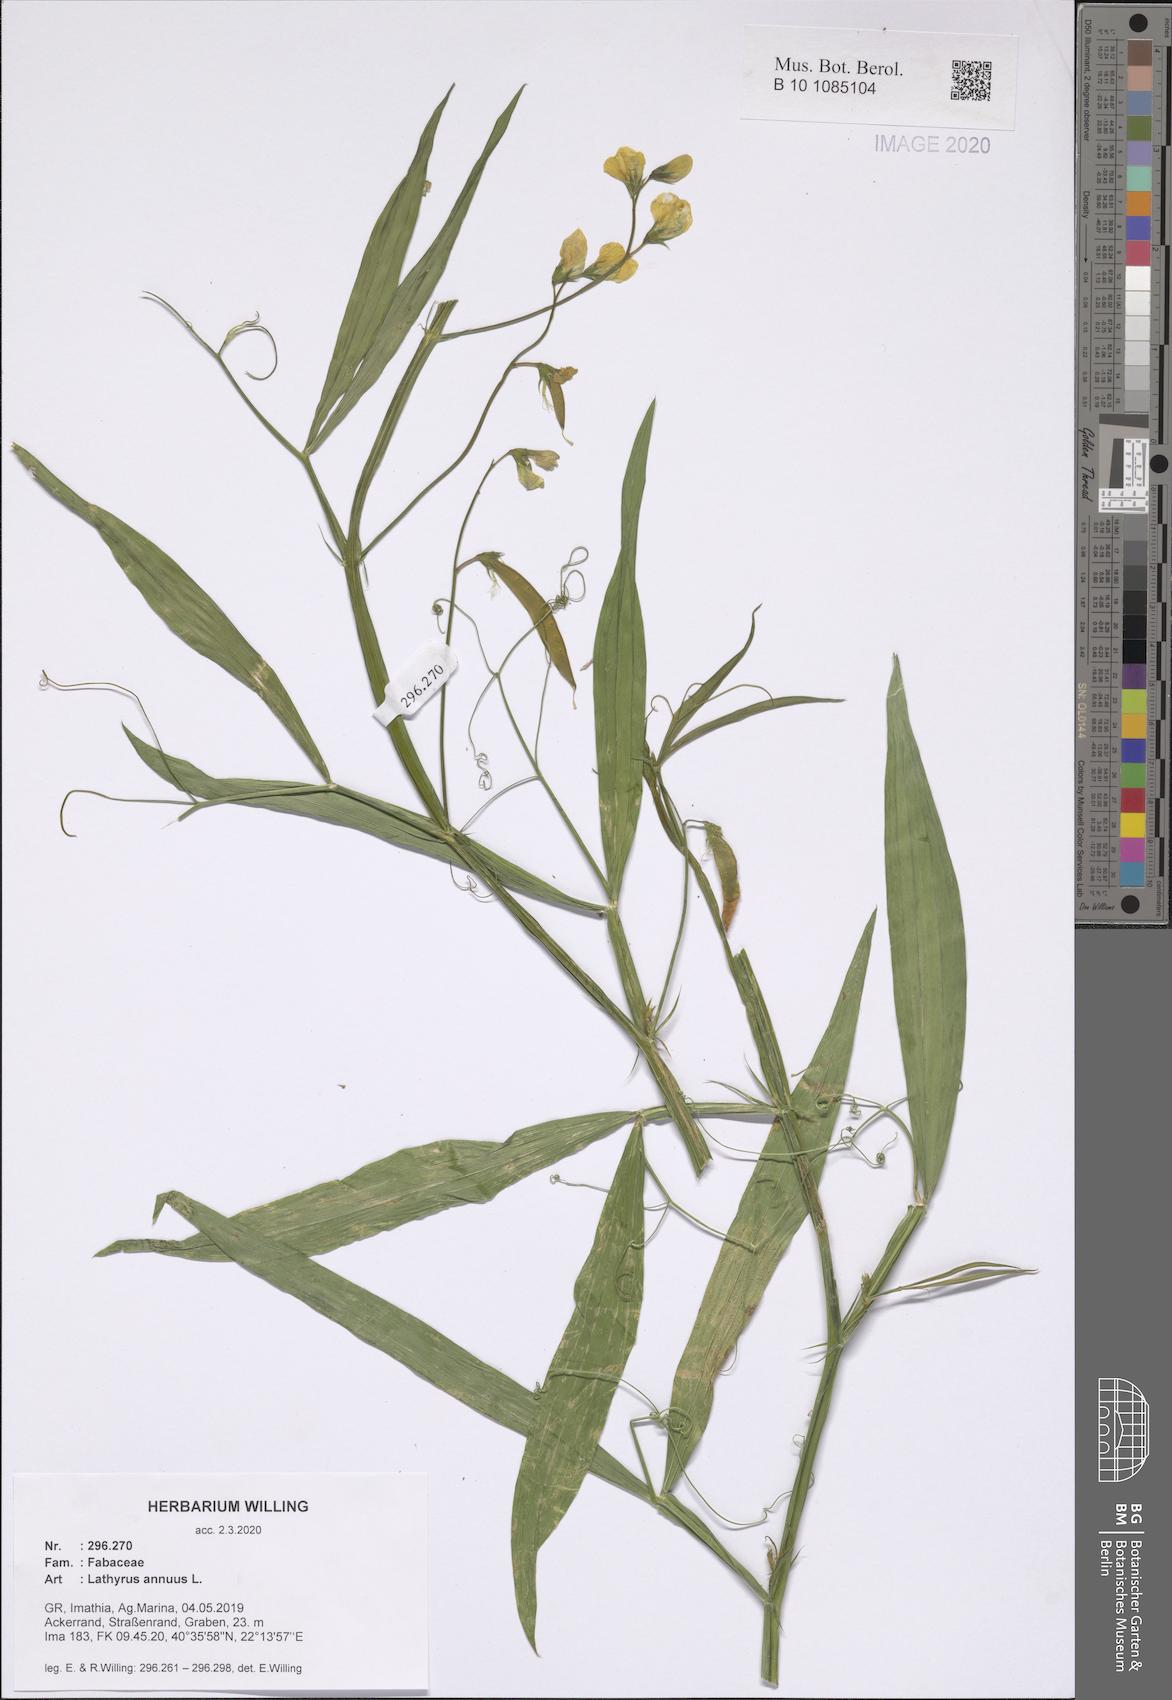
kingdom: Plantae
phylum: Tracheophyta
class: Magnoliopsida
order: Fabales
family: Fabaceae
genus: Lathyrus
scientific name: Lathyrus annuus
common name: Fodder pea
